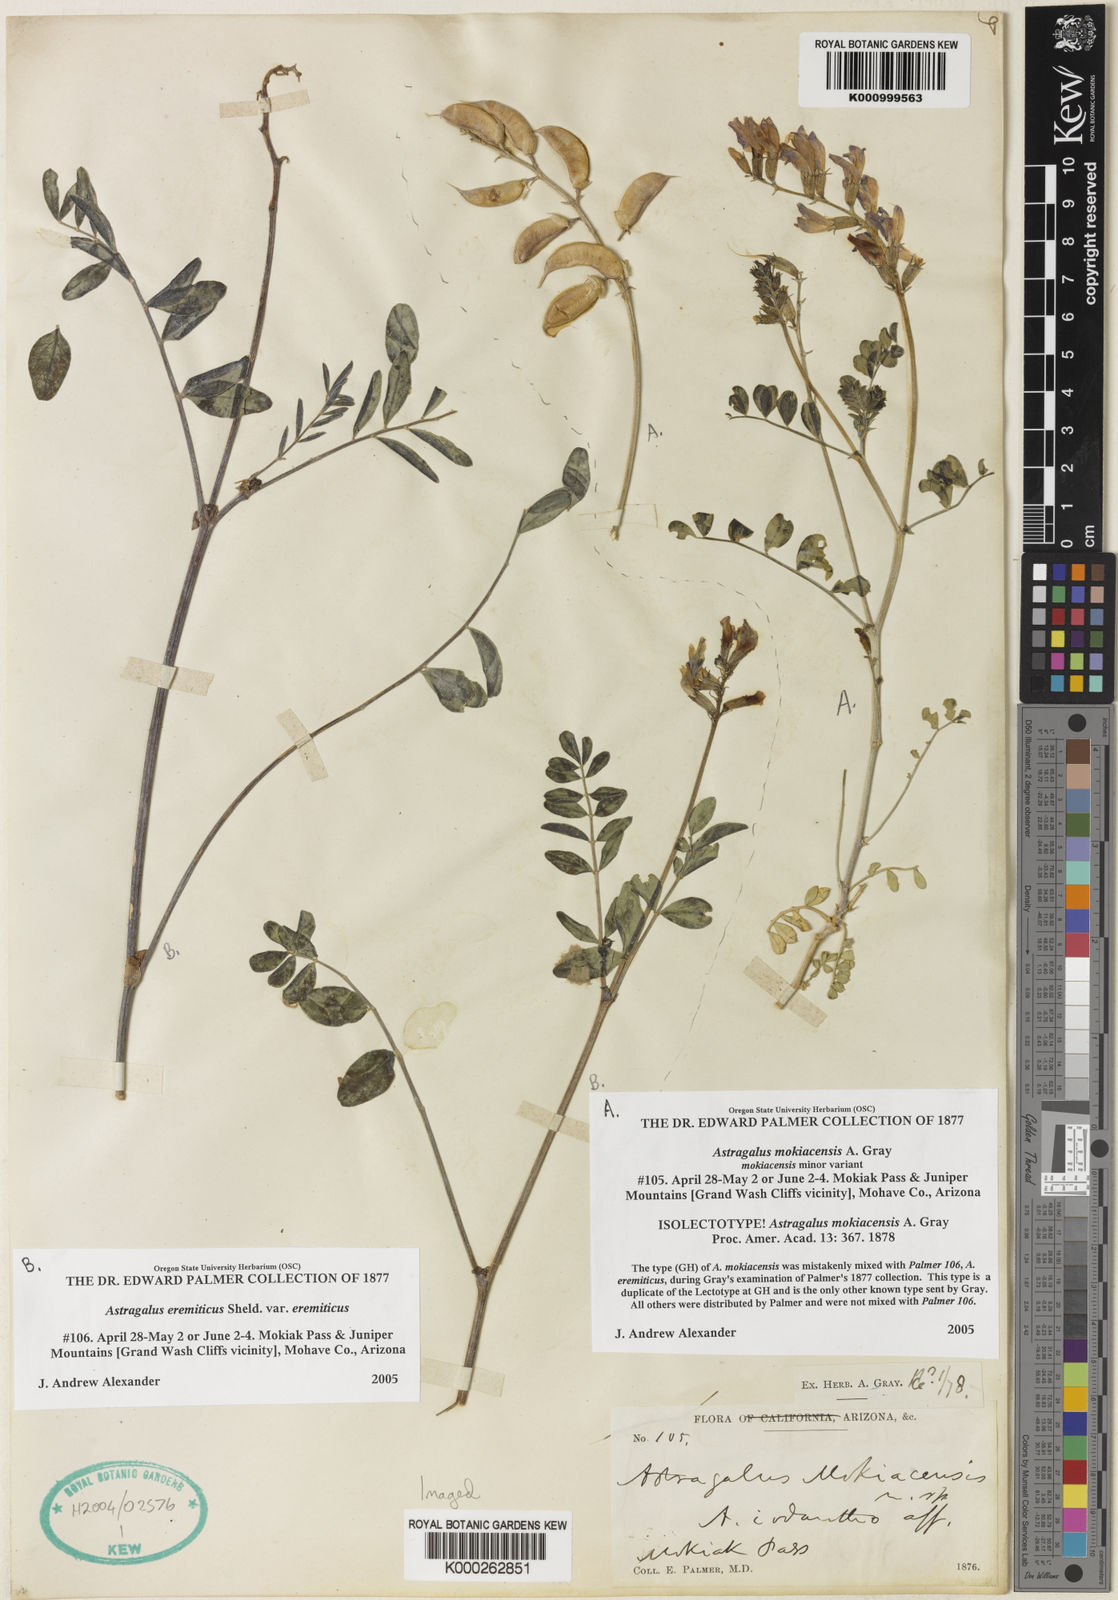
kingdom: Plantae
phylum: Tracheophyta
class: Magnoliopsida
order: Fabales
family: Fabaceae
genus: Astragalus
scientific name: Astragalus mokiacensis
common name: Mokiak milkvetch
